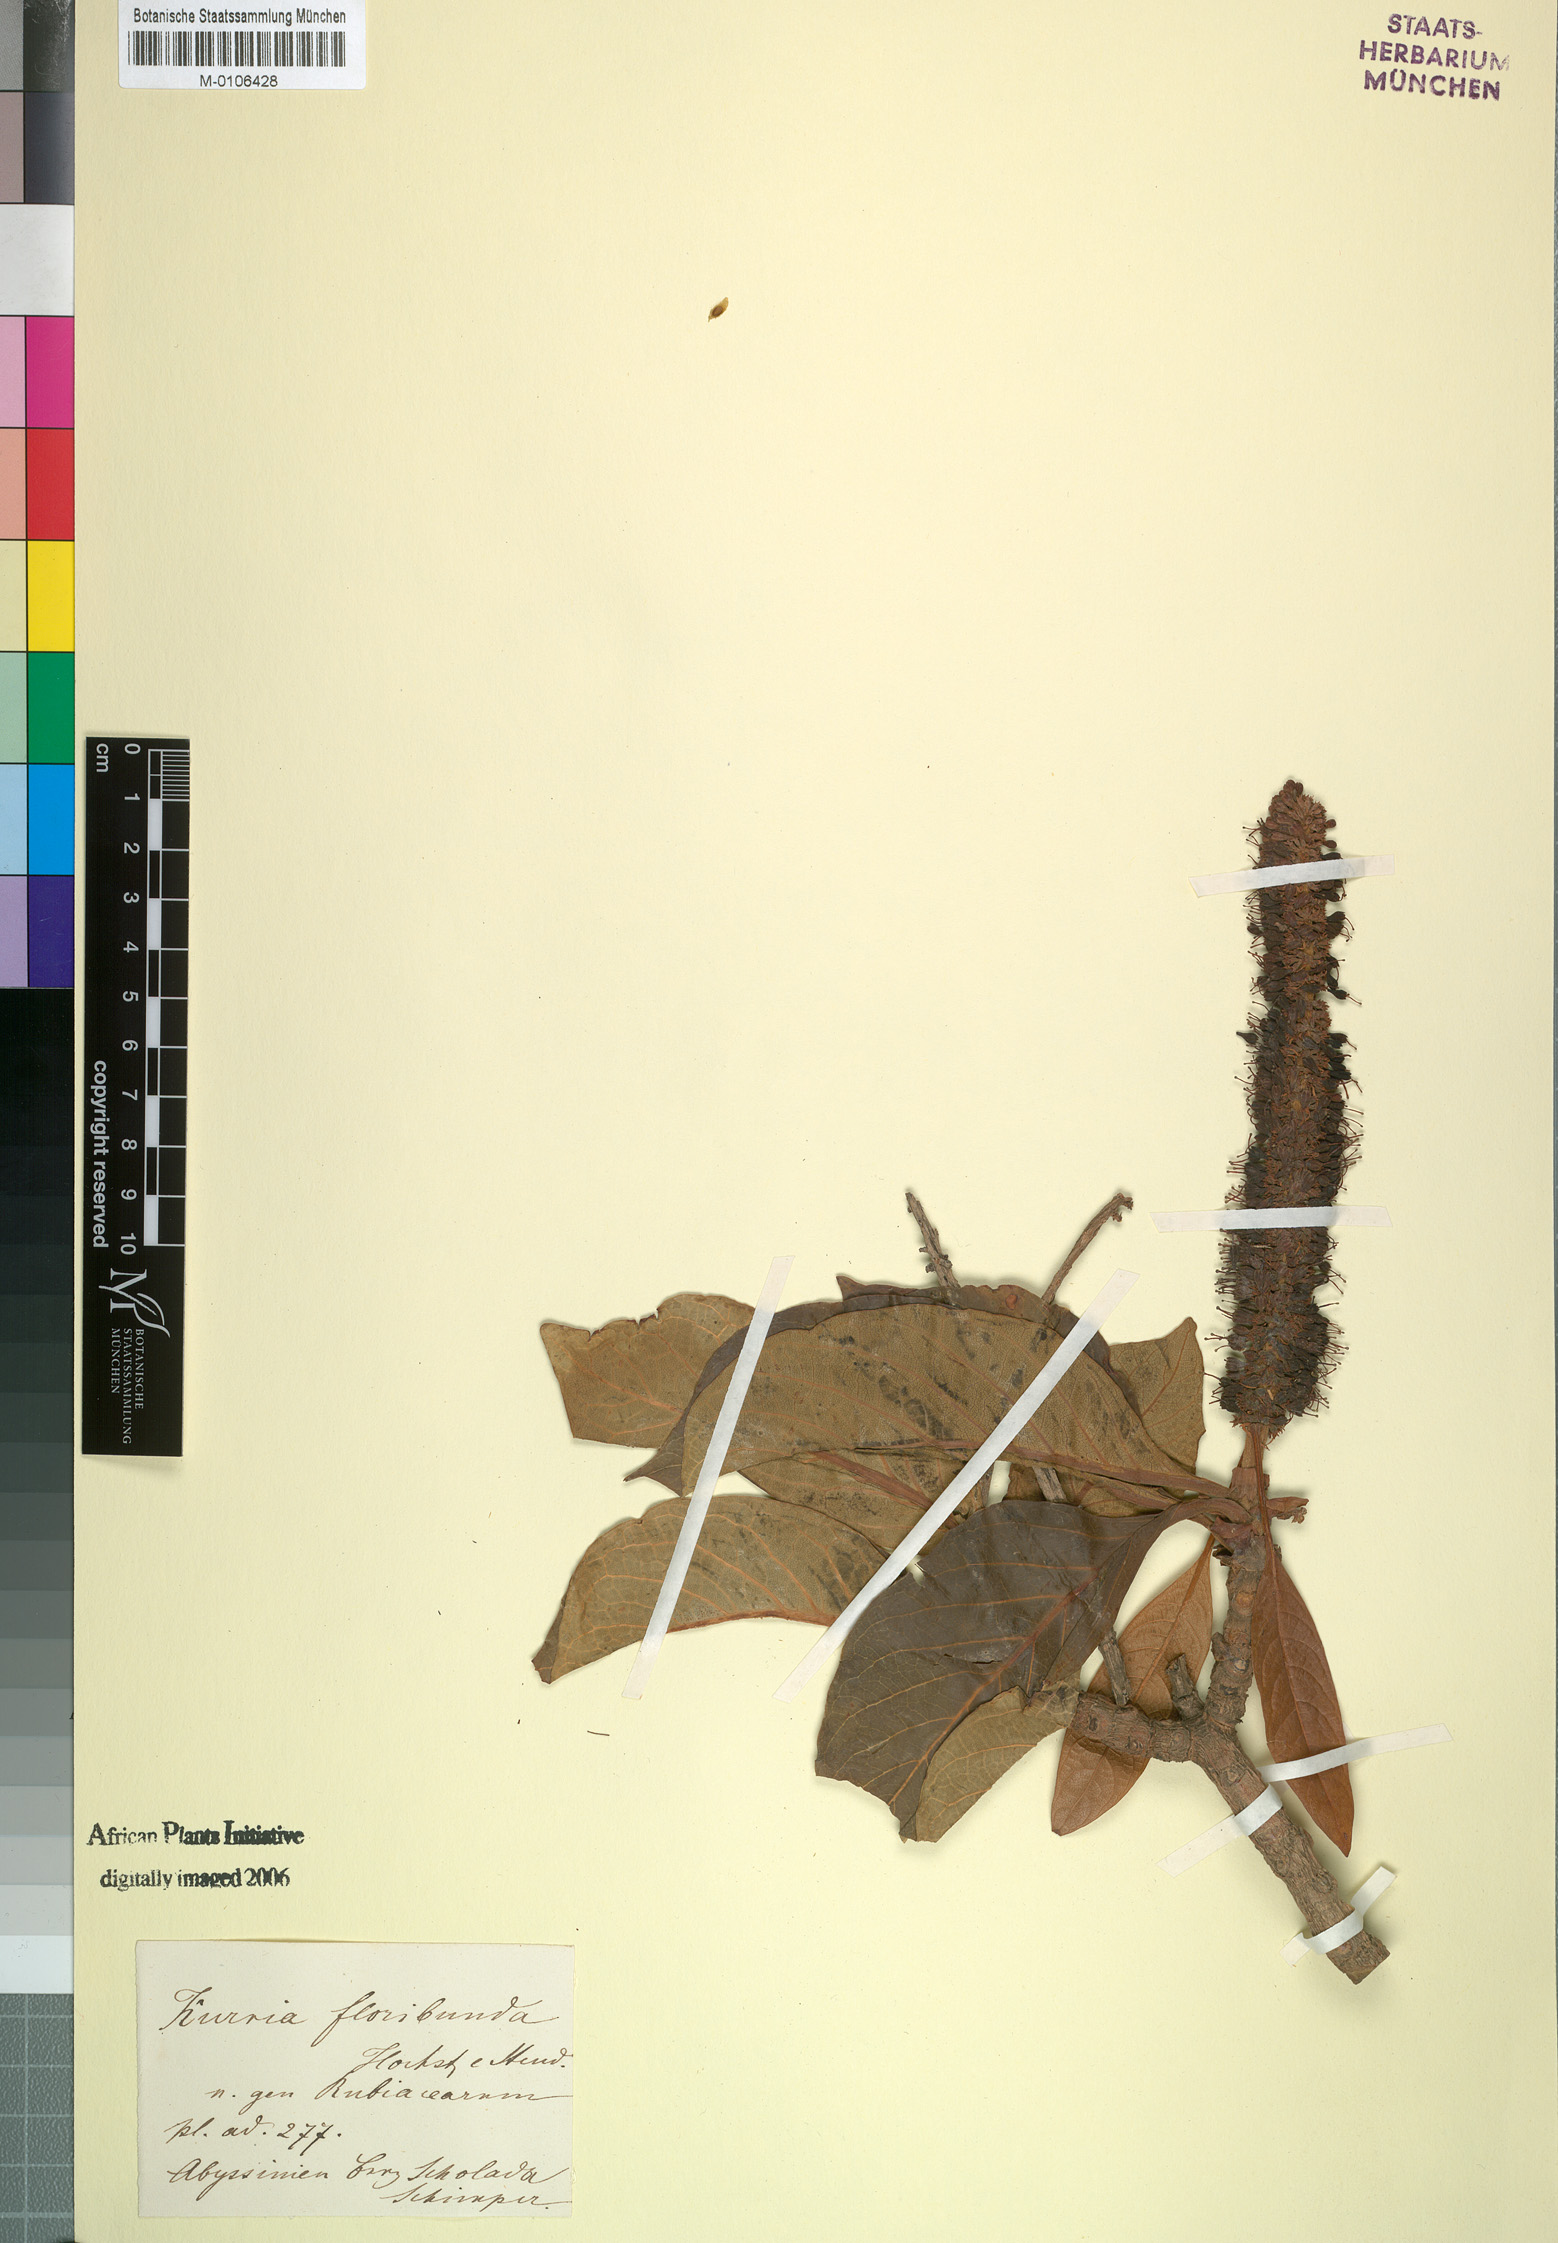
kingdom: Plantae
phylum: Tracheophyta
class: Magnoliopsida
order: Gentianales
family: Rubiaceae
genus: Hymenodictyon
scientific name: Hymenodictyon floribundum
